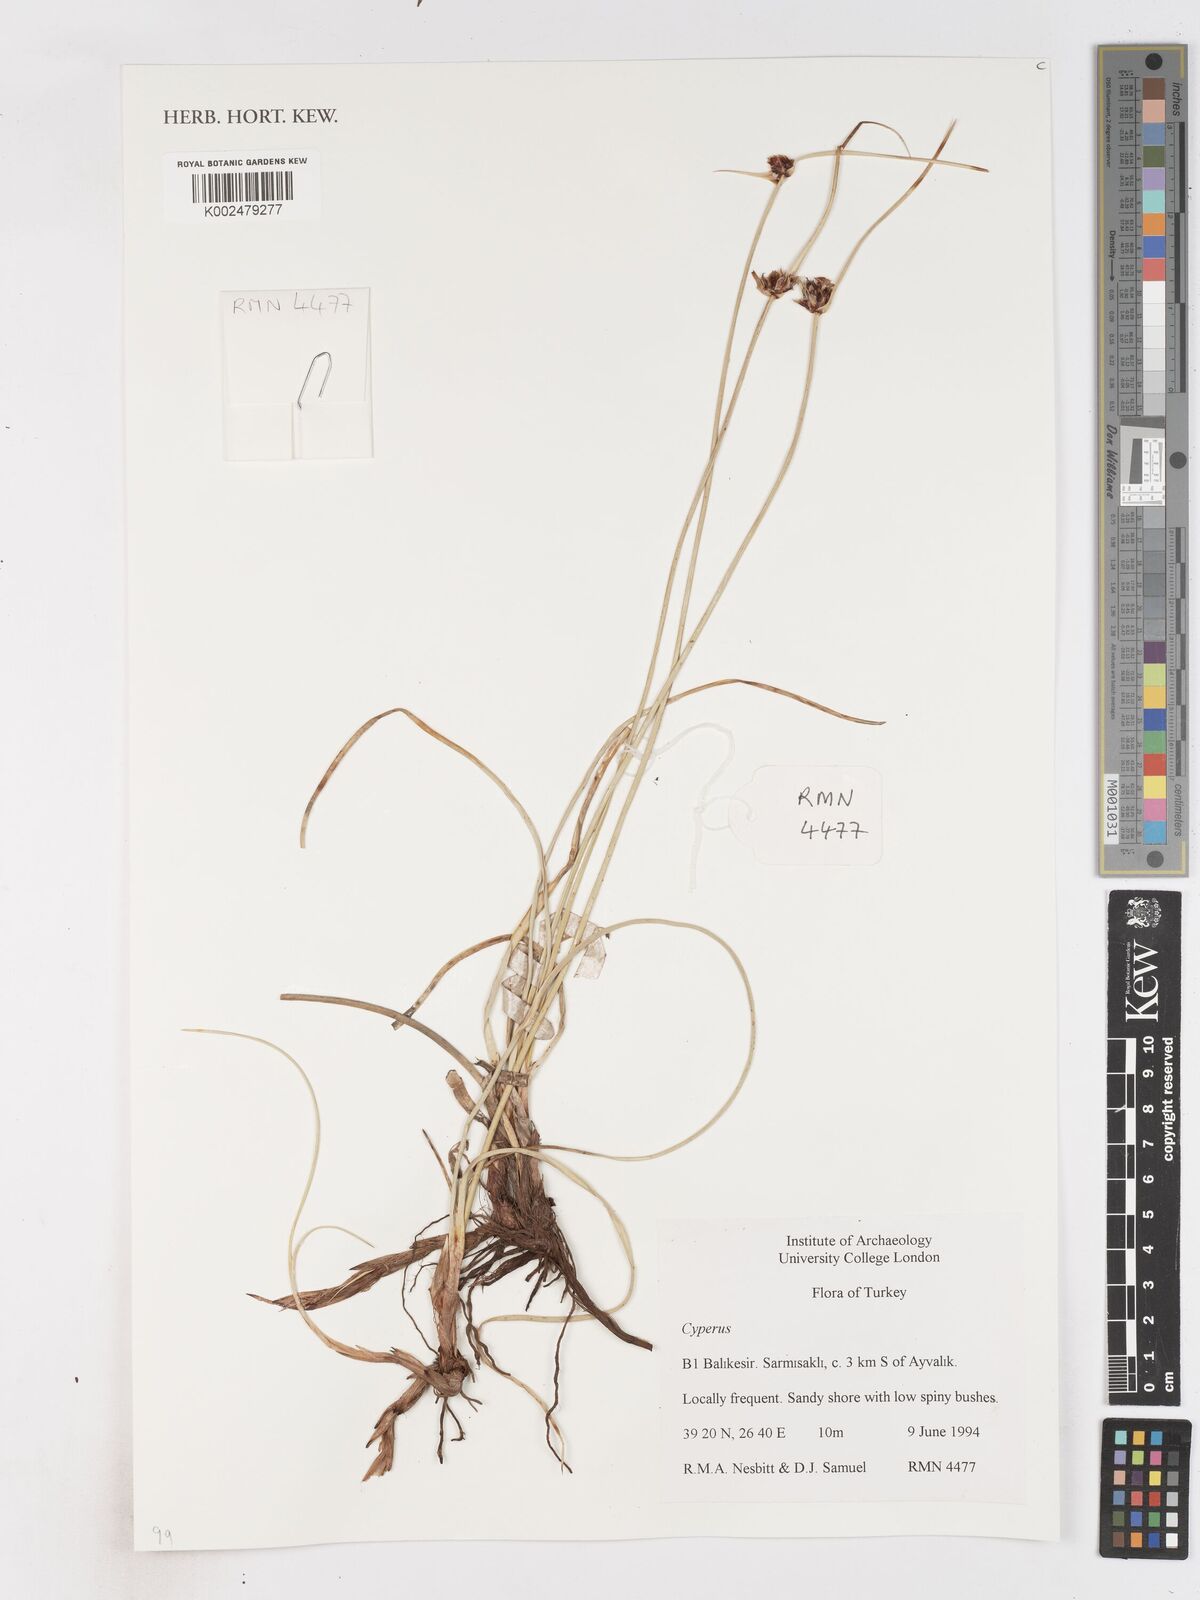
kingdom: Plantae
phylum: Tracheophyta
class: Liliopsida
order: Poales
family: Cyperaceae
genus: Cyperus
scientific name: Cyperus
